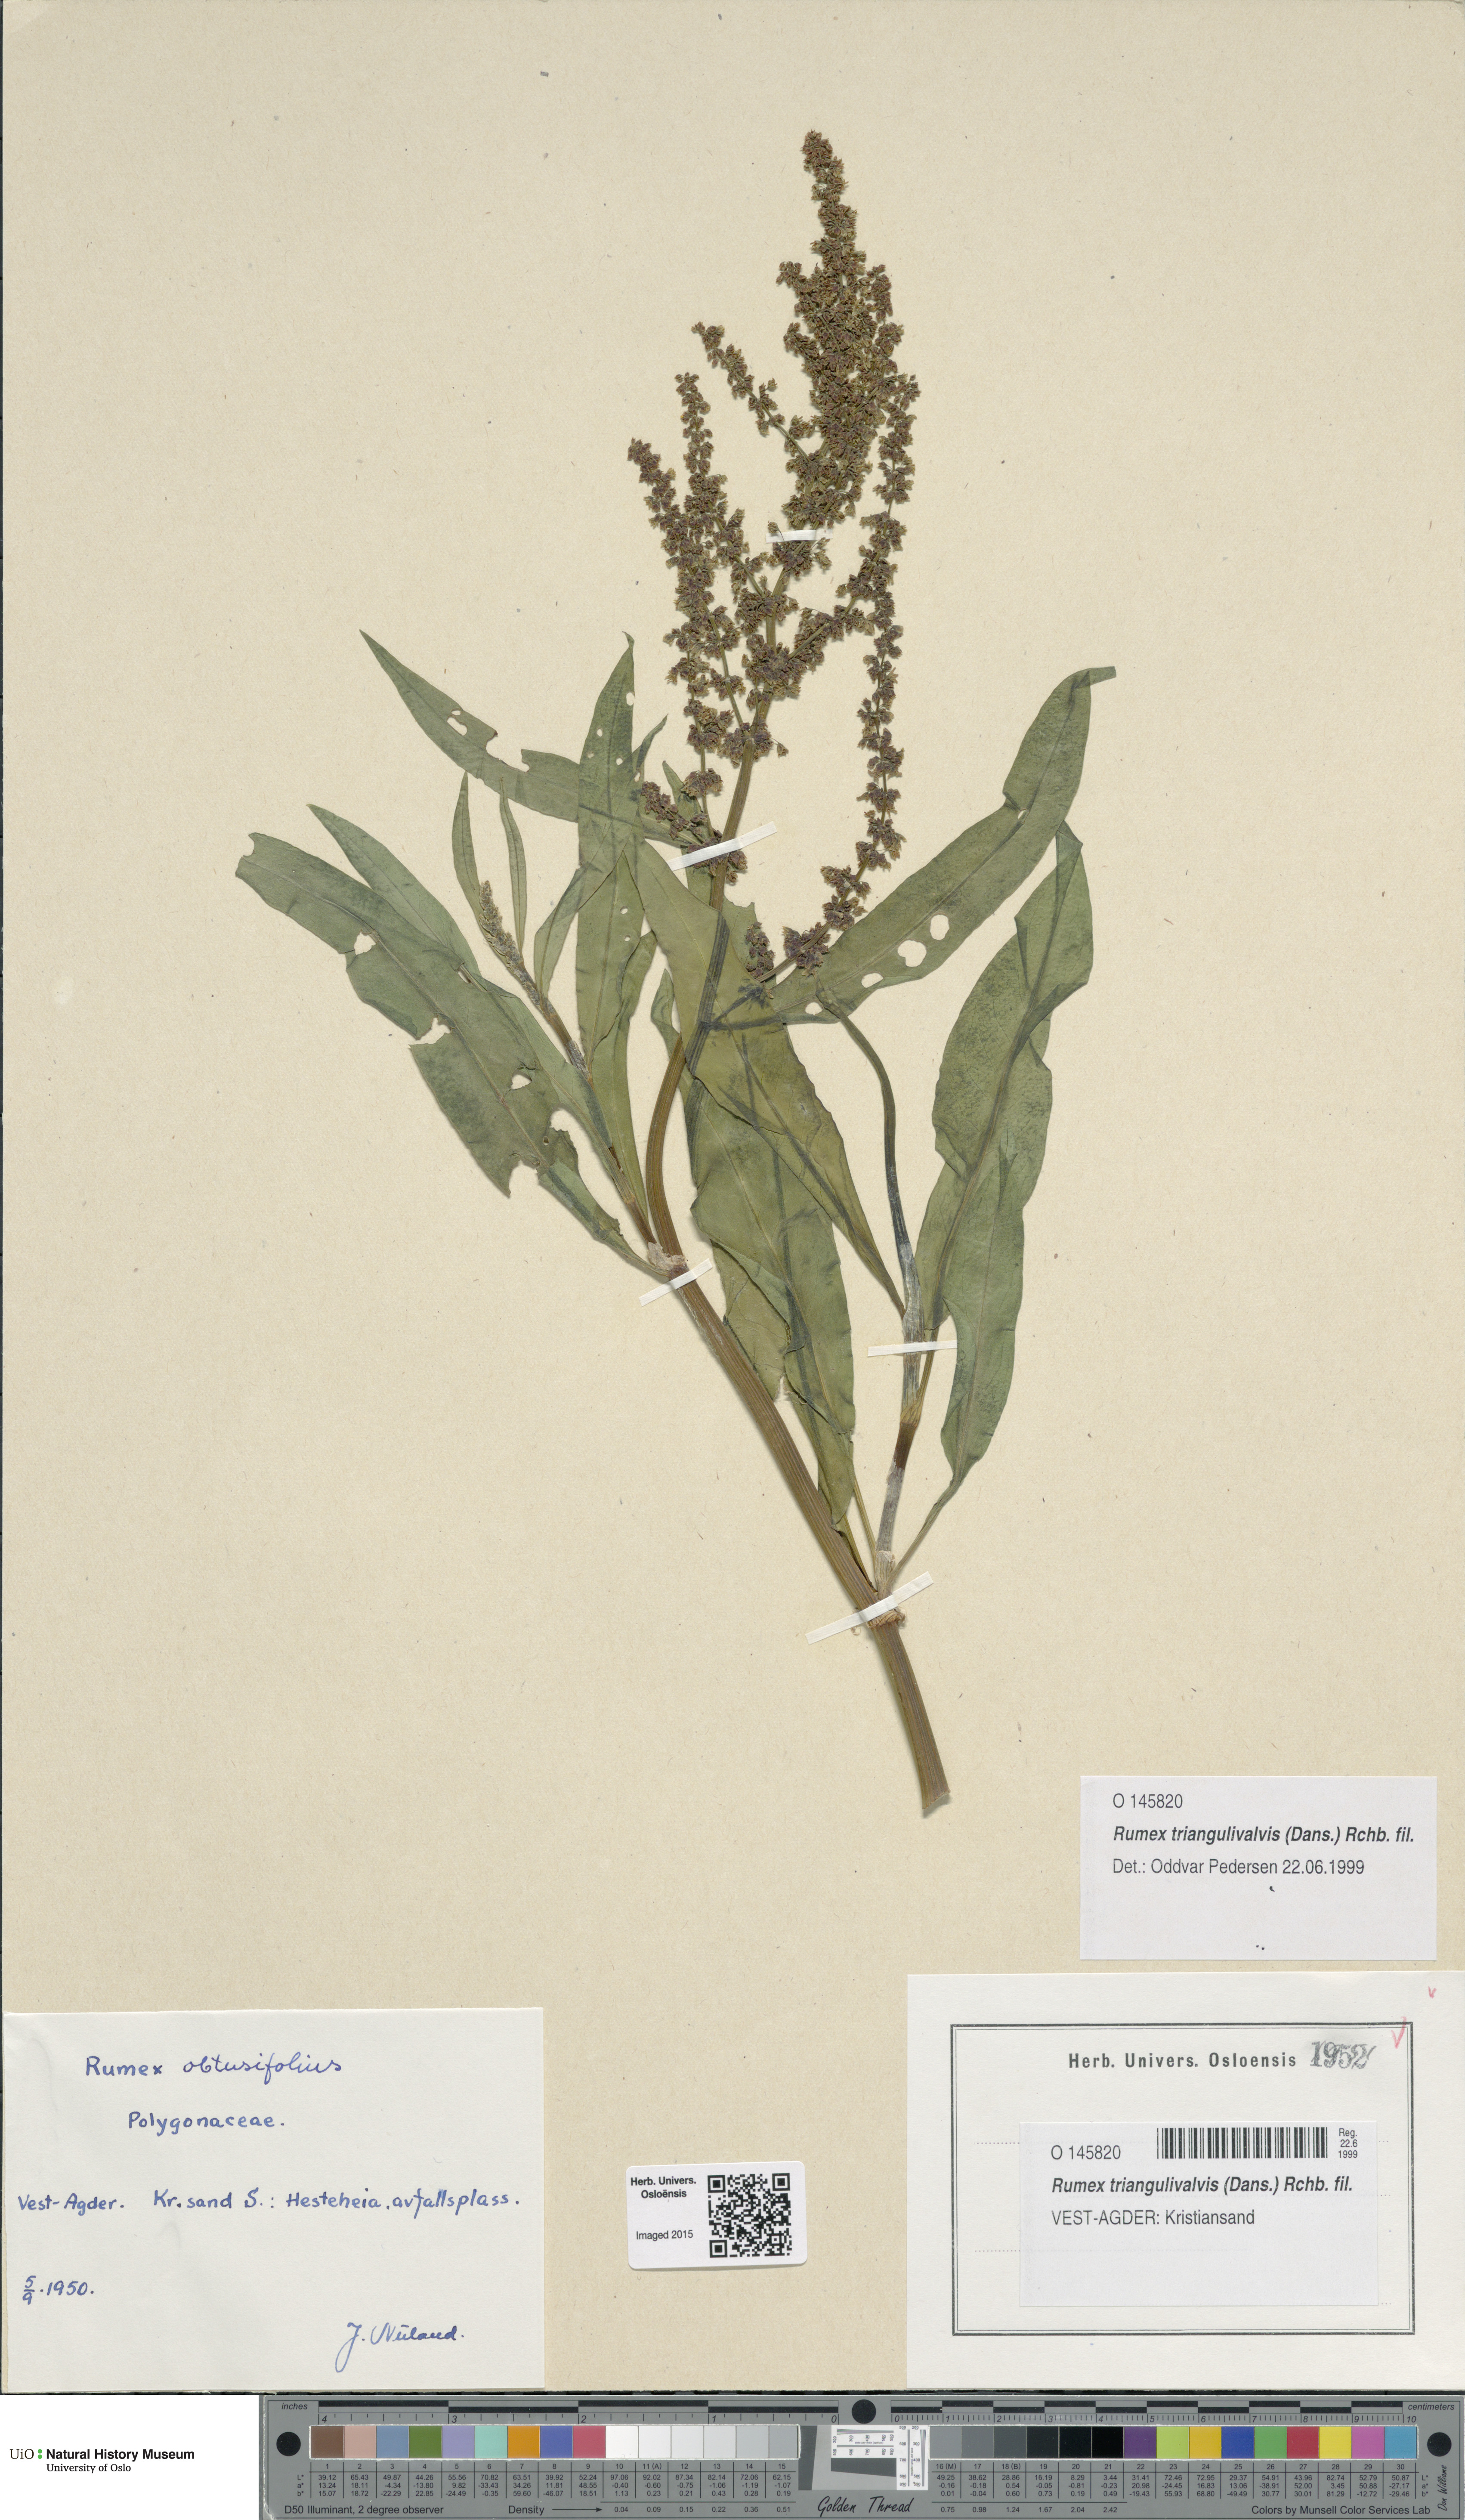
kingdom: Plantae
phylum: Tracheophyta
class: Magnoliopsida
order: Caryophyllales
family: Polygonaceae
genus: Rumex
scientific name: Rumex triangulivalvis
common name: Triangular-valve dock
